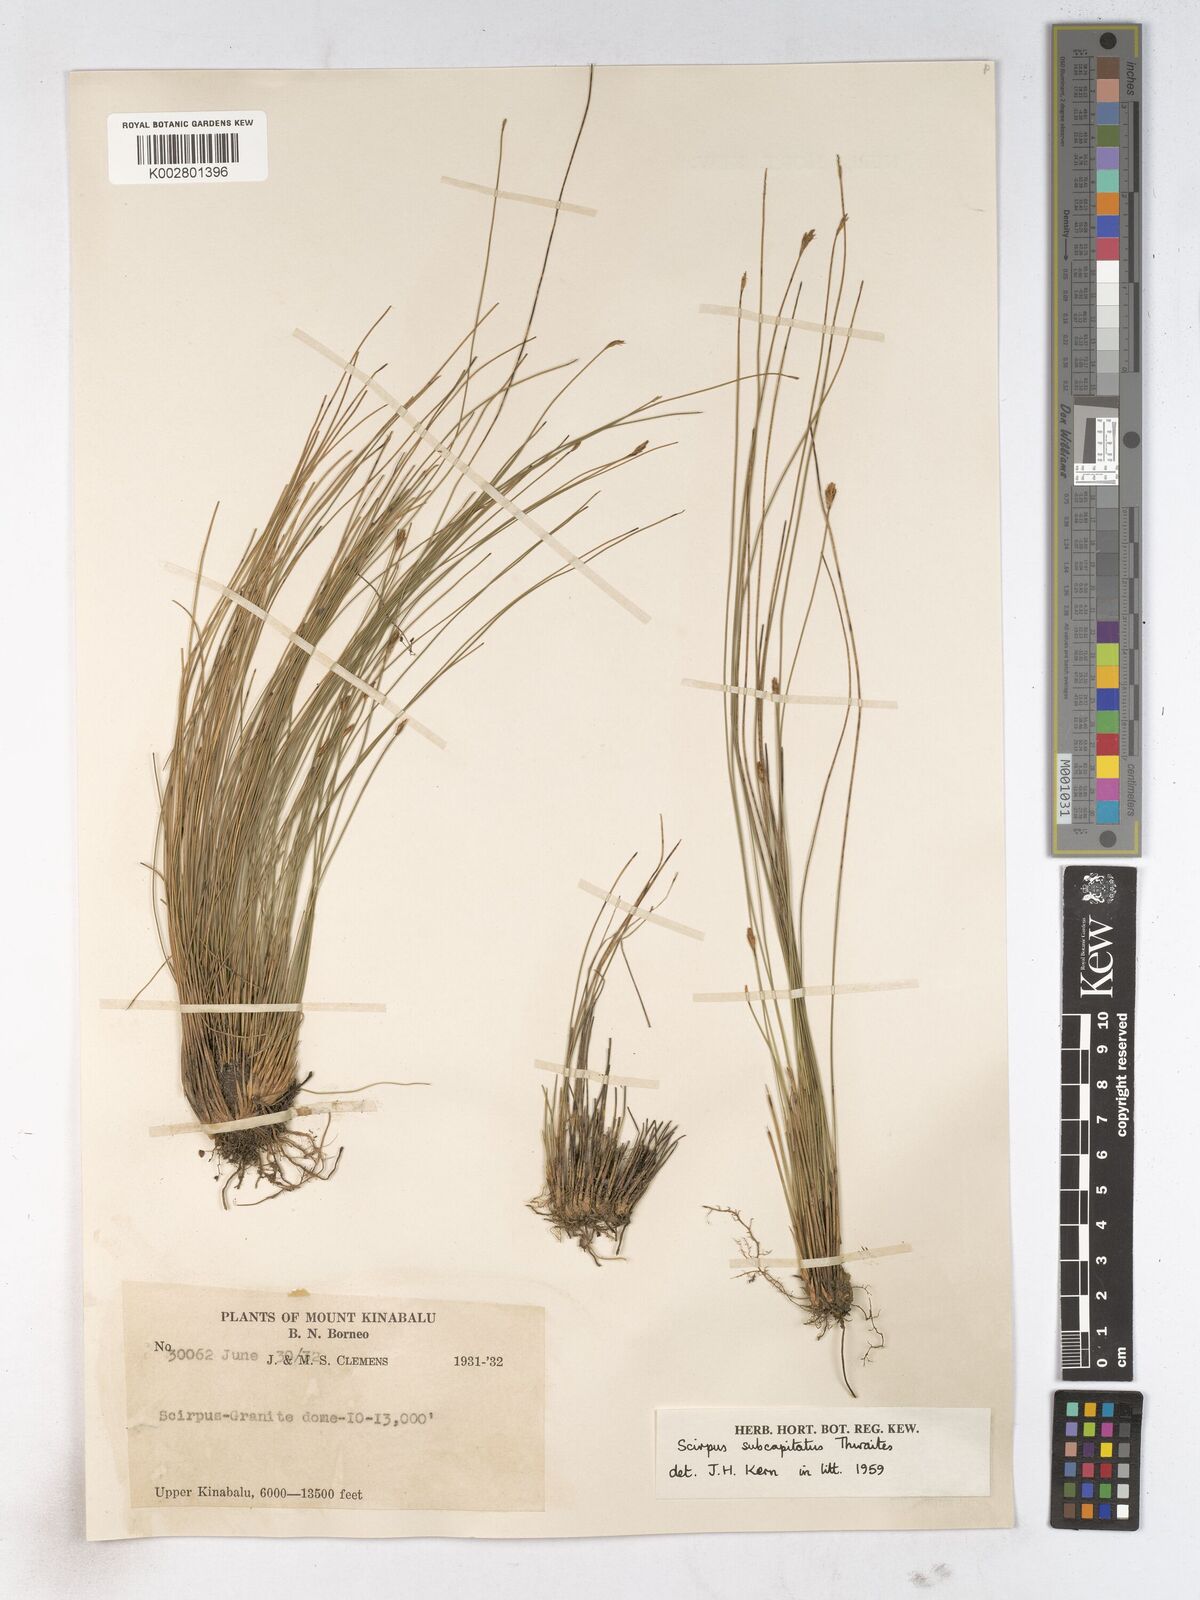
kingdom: Plantae
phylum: Tracheophyta
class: Liliopsida
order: Poales
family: Cyperaceae
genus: Trichophorum
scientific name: Trichophorum subcapitatum
